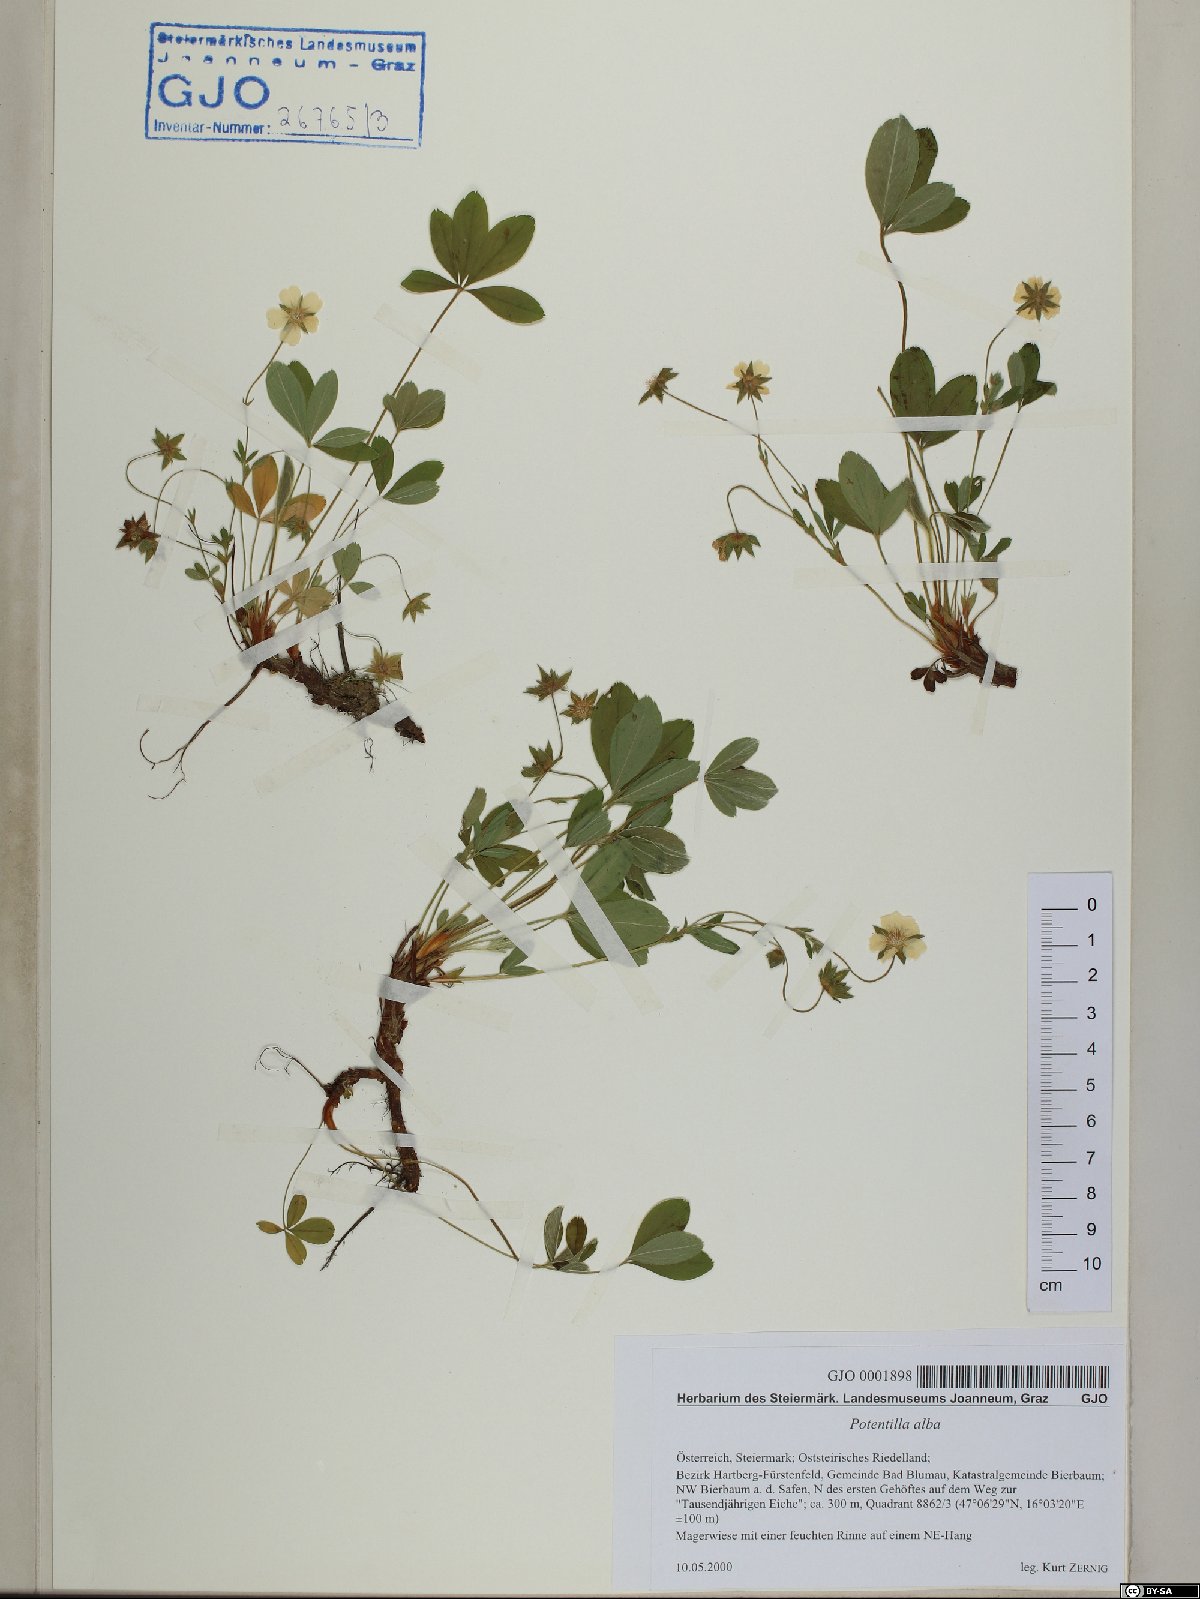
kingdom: Plantae
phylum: Tracheophyta
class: Magnoliopsida
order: Rosales
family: Rosaceae
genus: Potentilla
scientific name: Potentilla alba
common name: White cinquefoil
